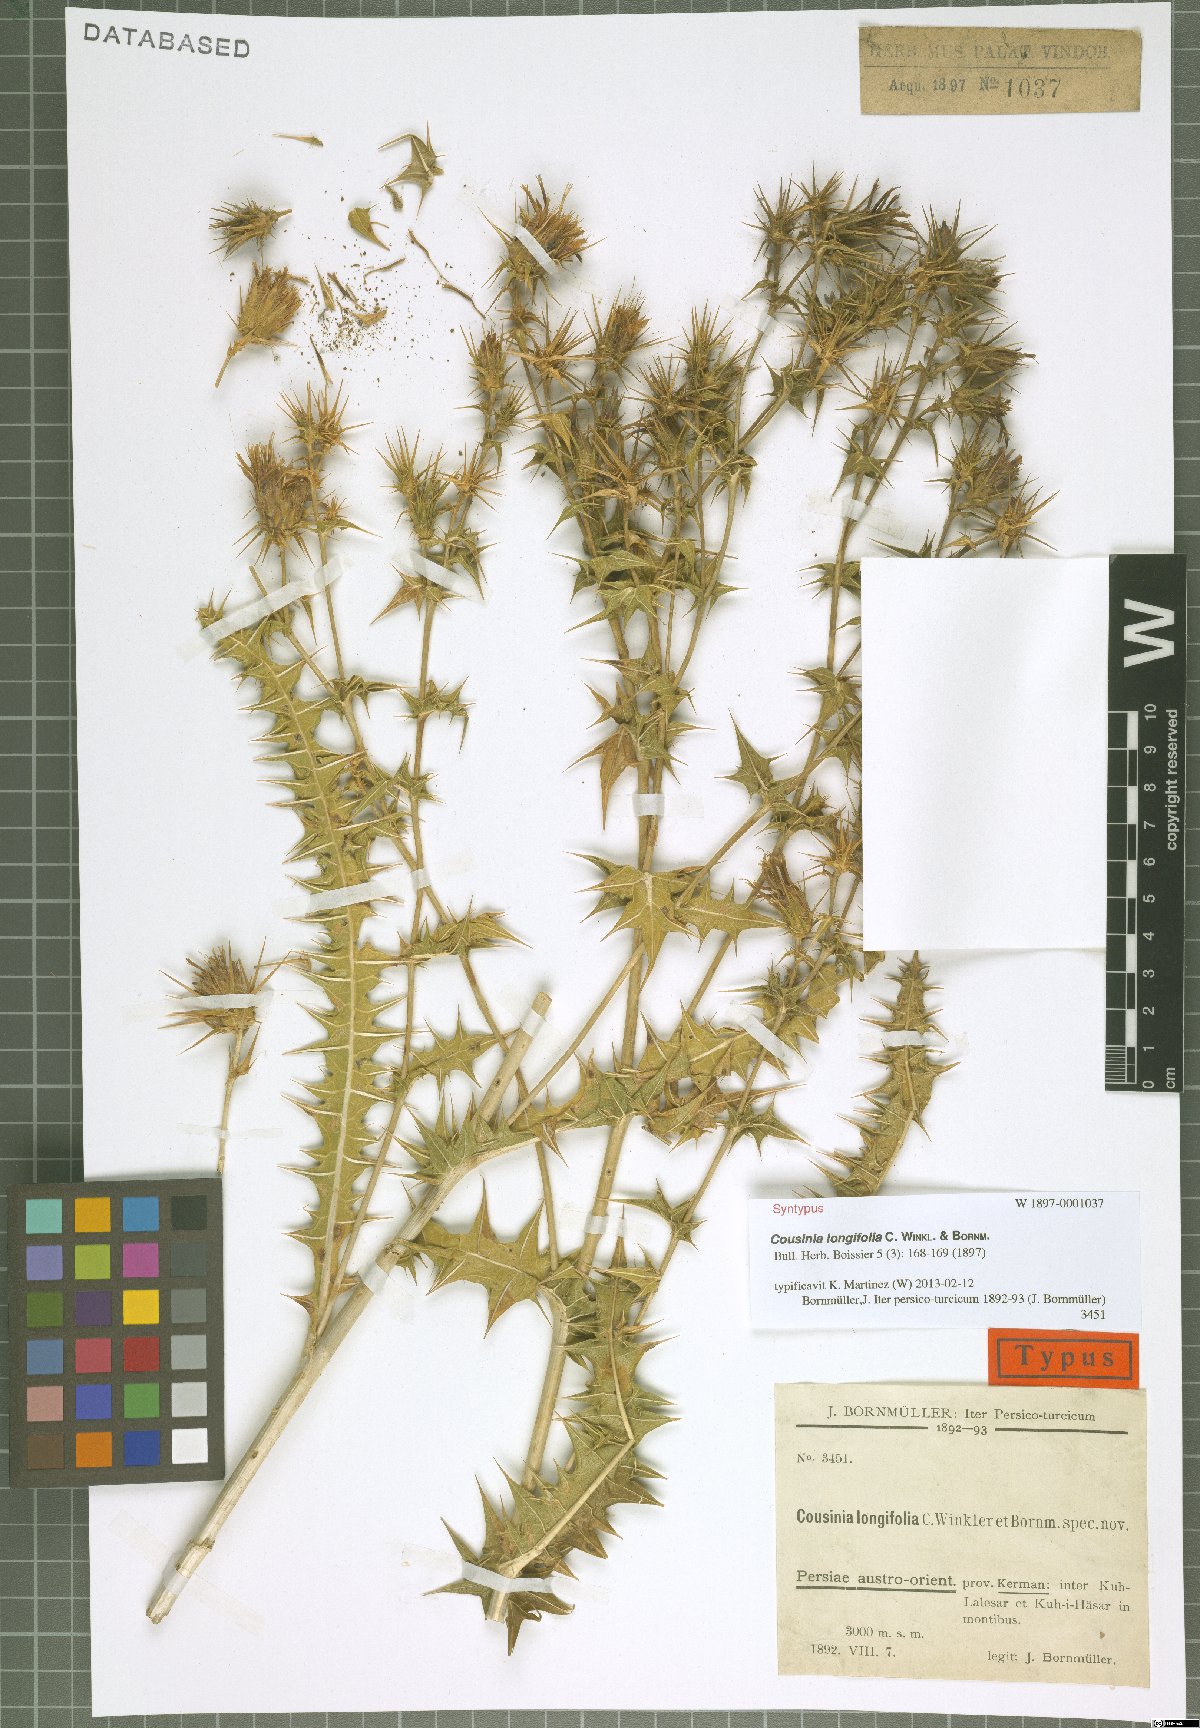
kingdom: Plantae
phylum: Tracheophyta
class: Magnoliopsida
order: Asterales
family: Asteraceae
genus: Cousinia
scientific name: Cousinia longifolia
